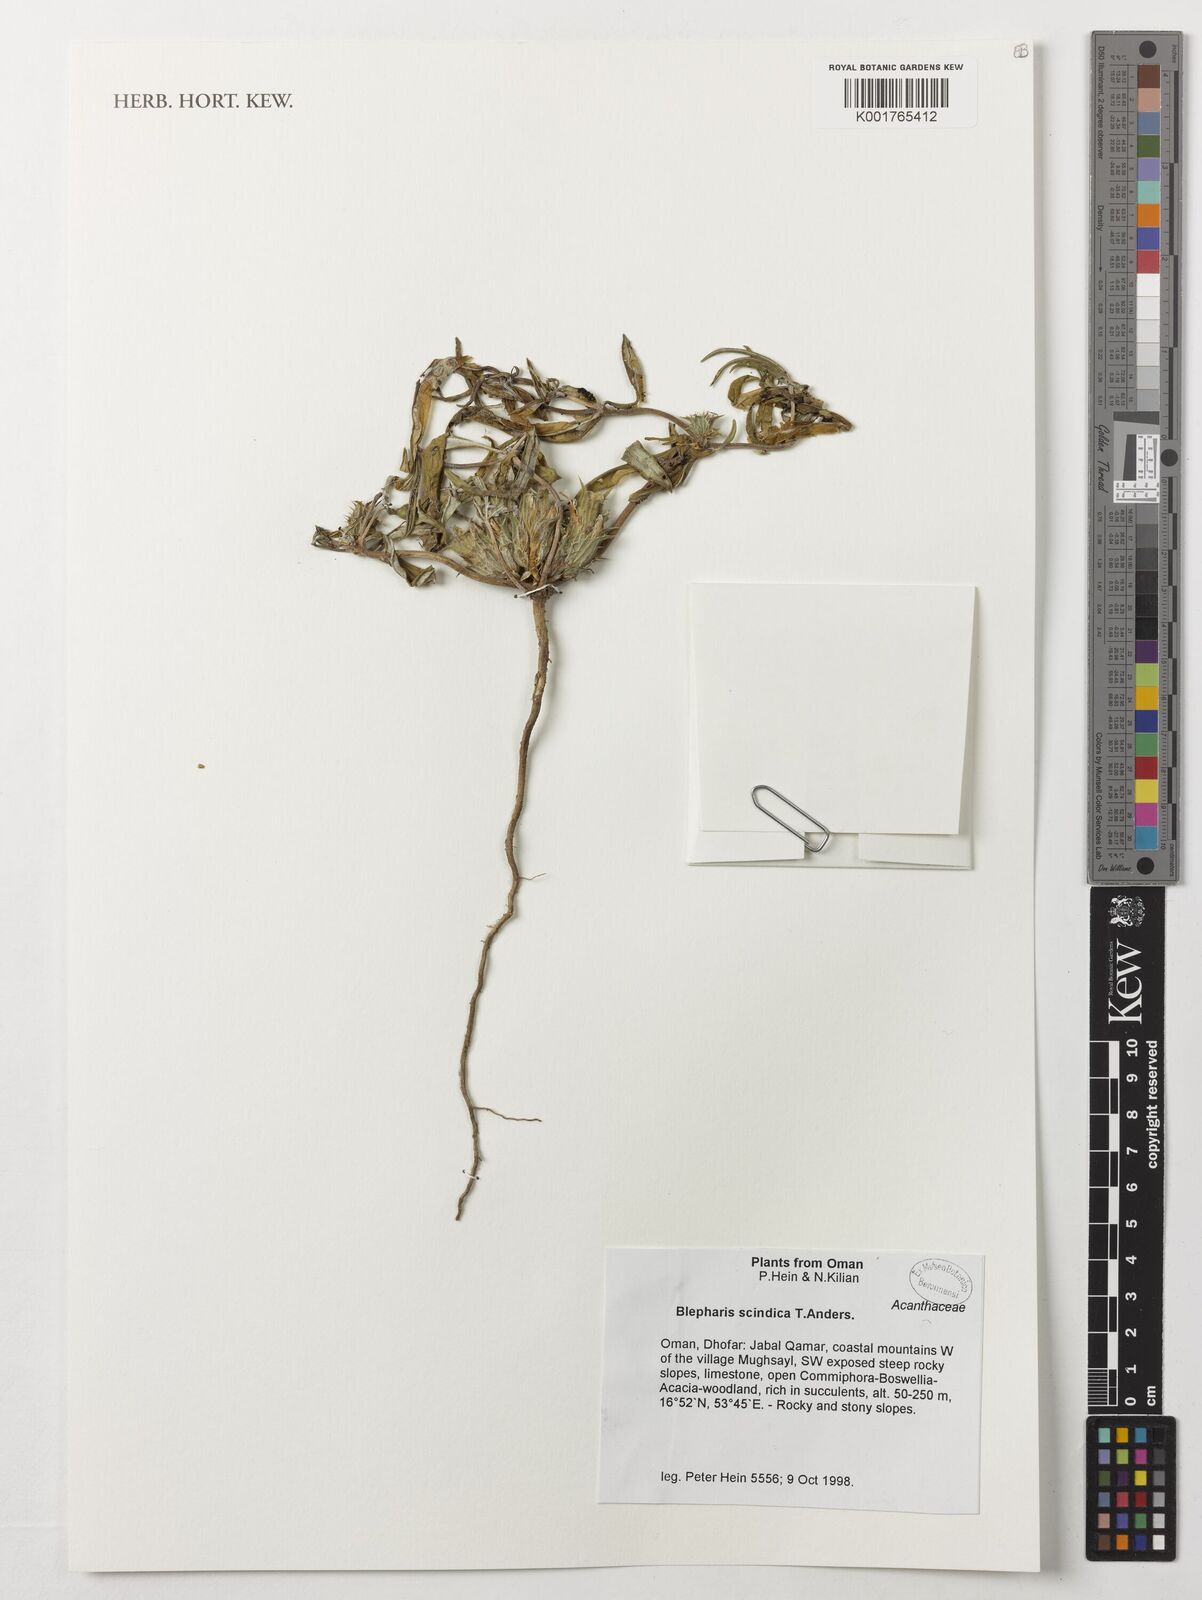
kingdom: Plantae
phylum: Tracheophyta
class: Magnoliopsida
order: Lamiales
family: Acanthaceae
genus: Blepharis
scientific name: Blepharis scindica
